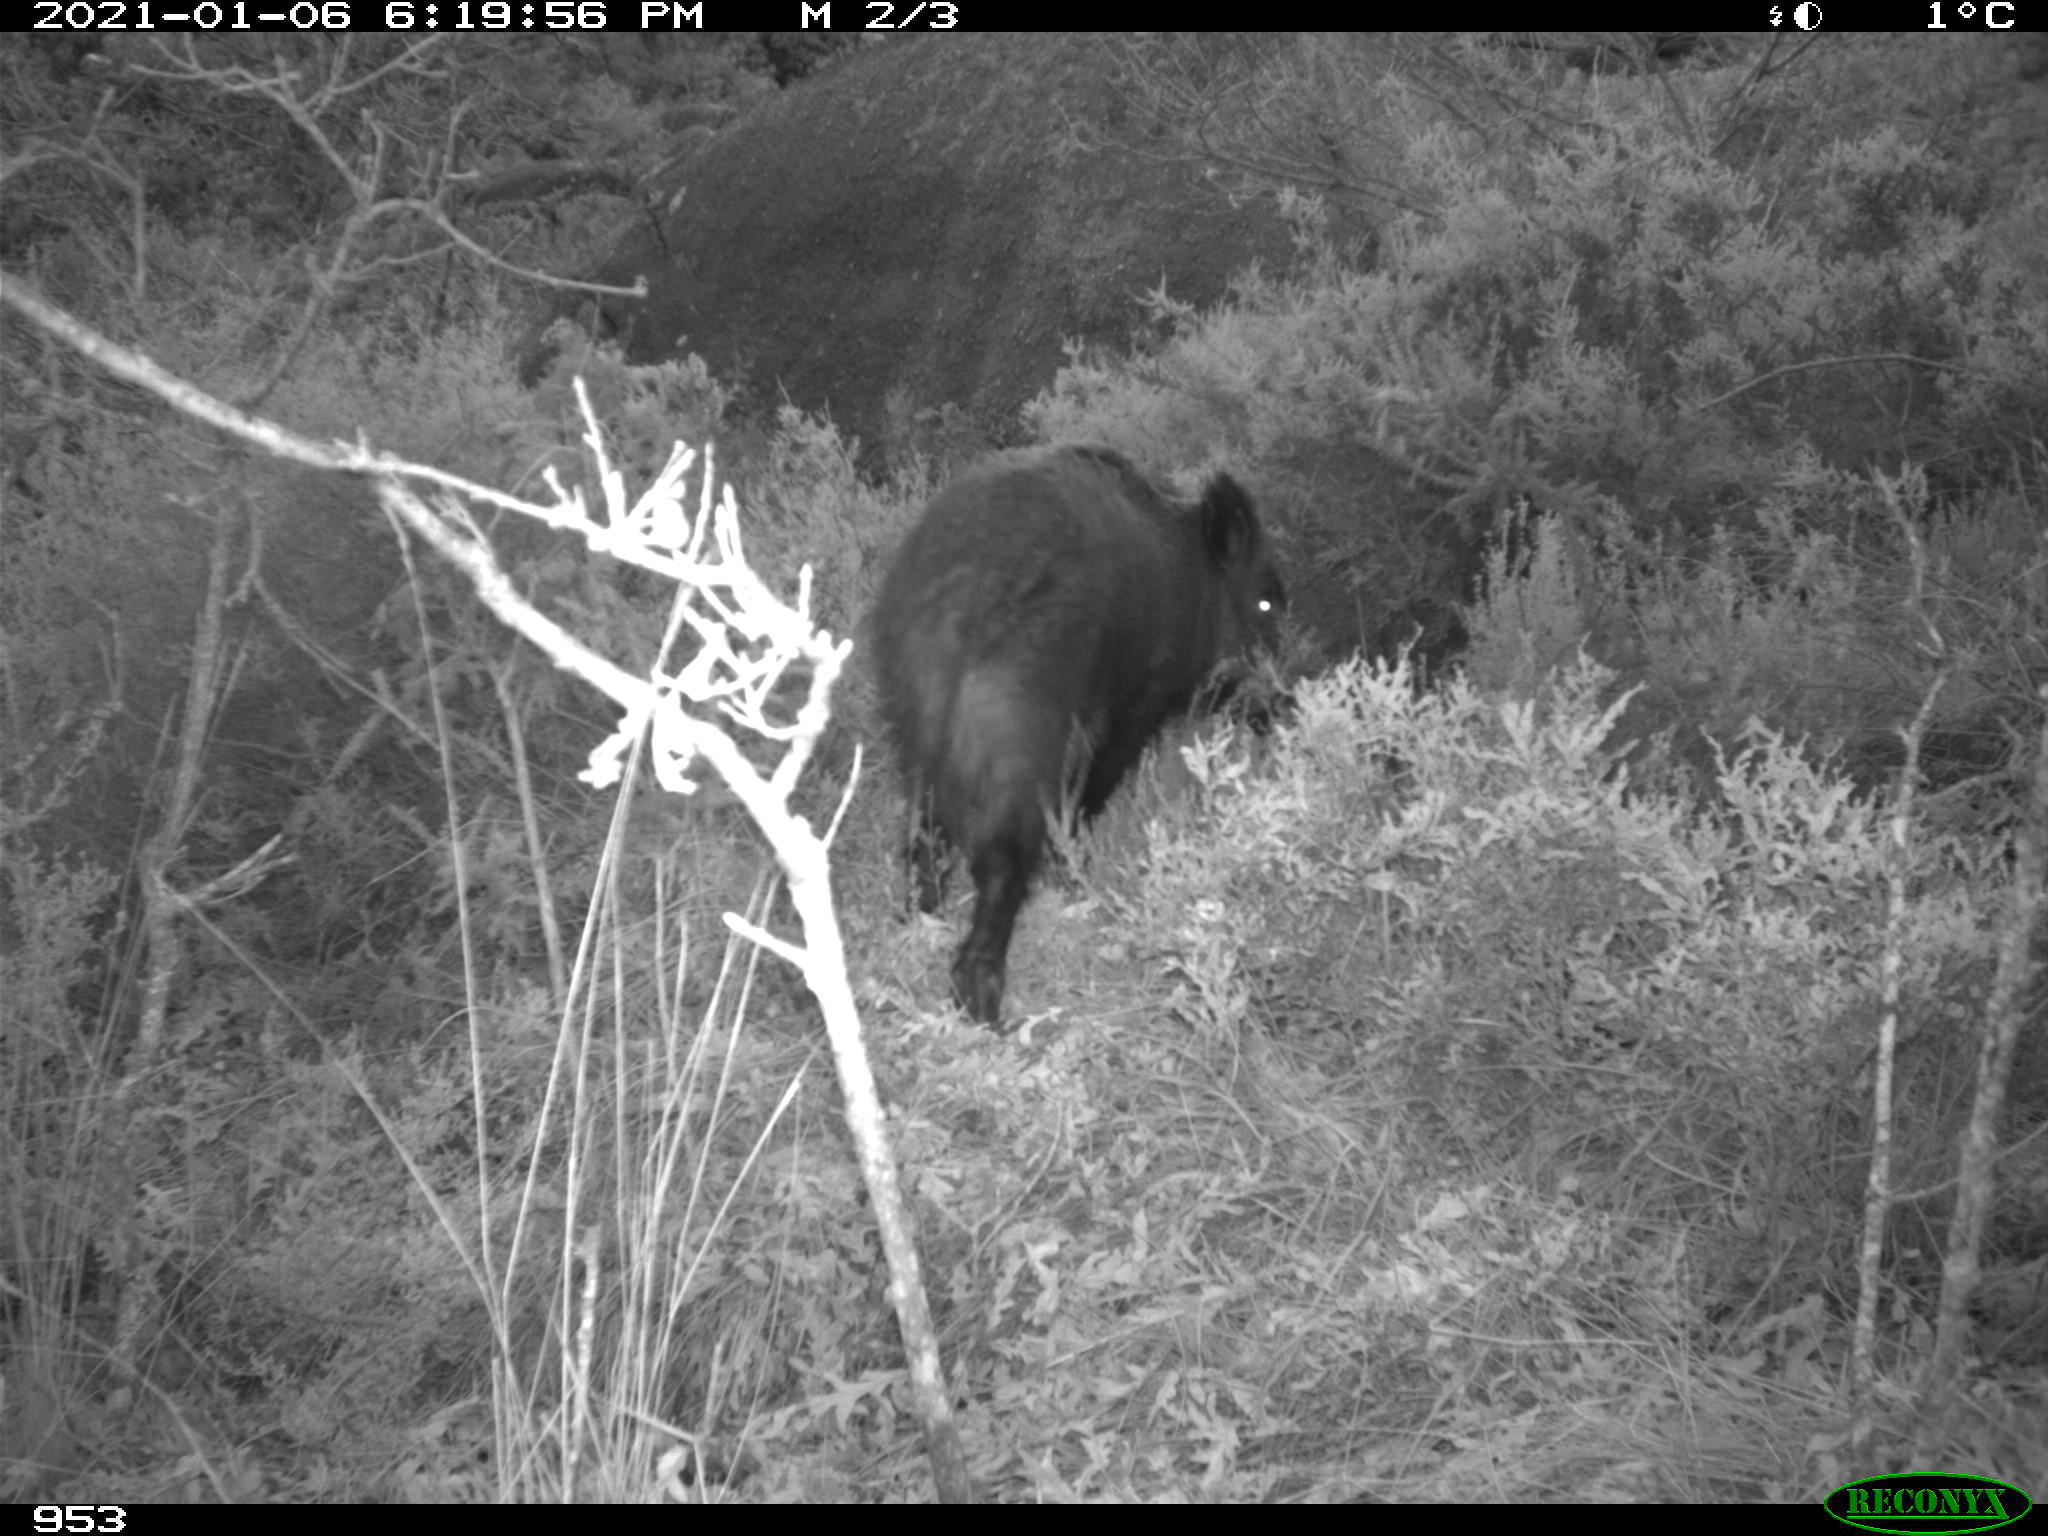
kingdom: Animalia
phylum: Chordata
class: Mammalia
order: Artiodactyla
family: Suidae
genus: Sus
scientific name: Sus scrofa
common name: Wild boar
